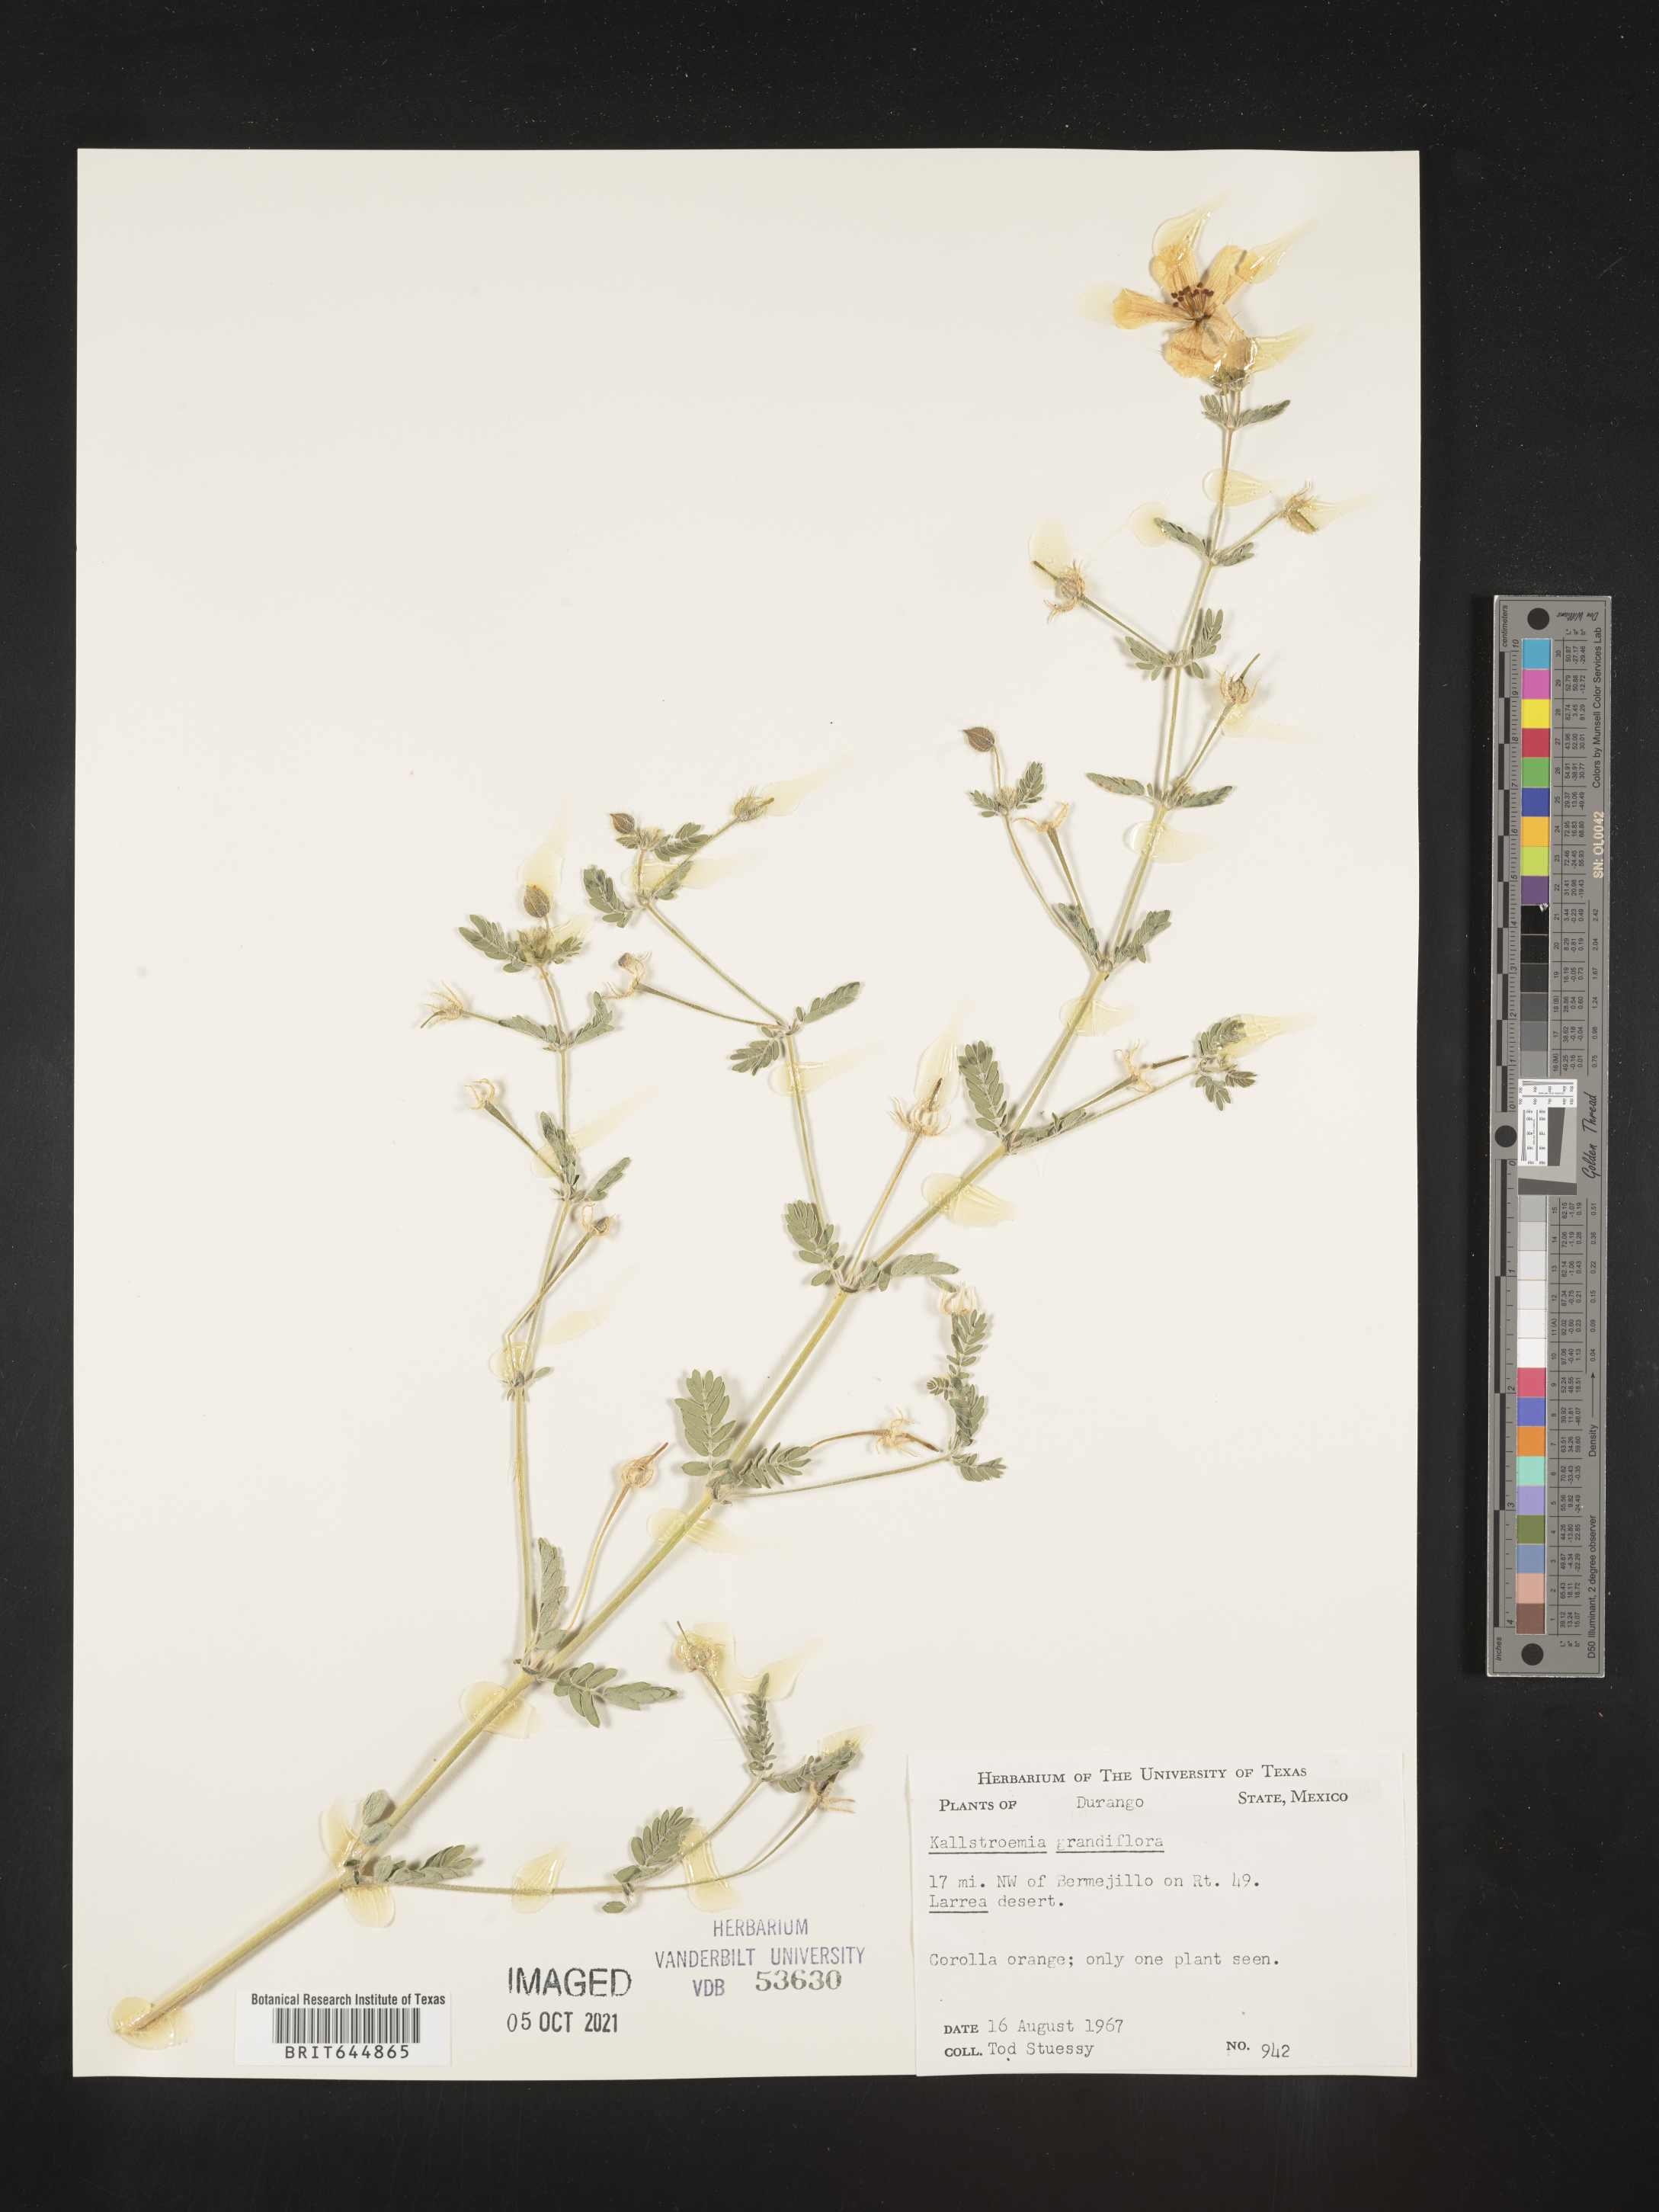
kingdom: Plantae
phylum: Tracheophyta
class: Magnoliopsida
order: Zygophyllales
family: Zygophyllaceae
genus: Kallstroemia
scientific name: Kallstroemia
